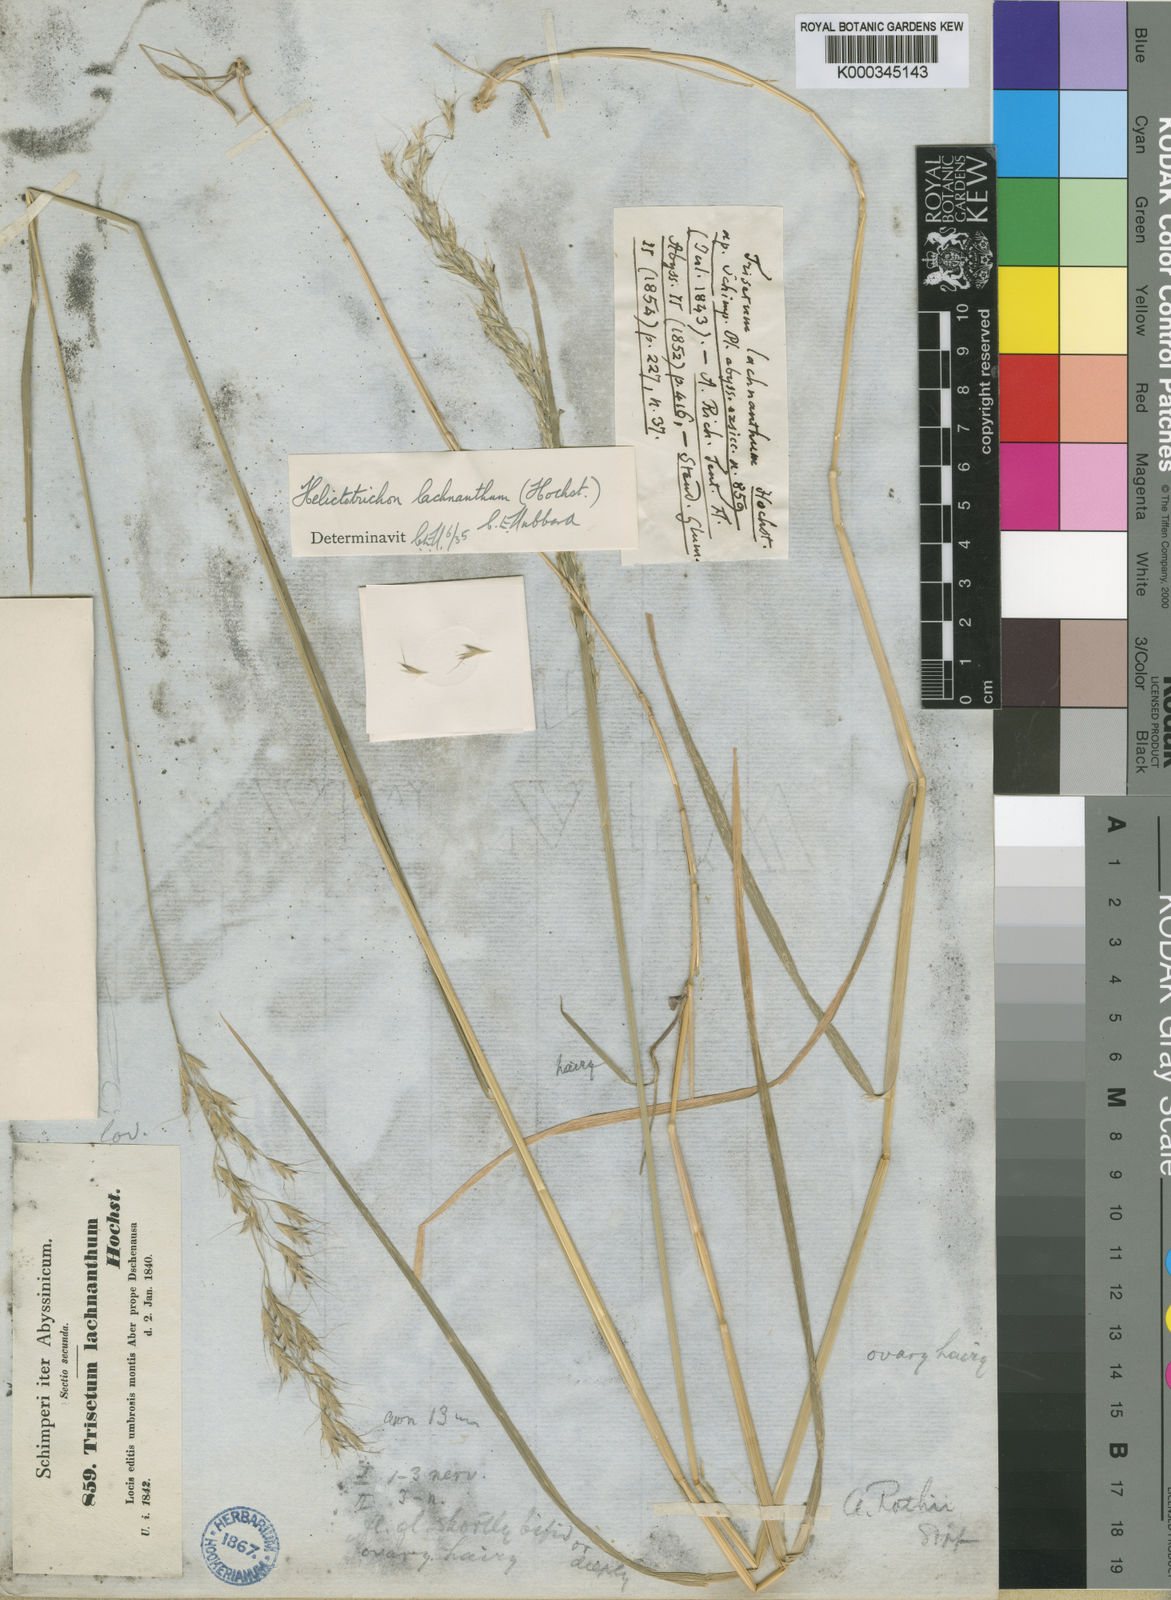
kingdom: Plantae
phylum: Tracheophyta
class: Liliopsida
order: Poales
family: Poaceae
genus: Trisetopsis
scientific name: Trisetopsis lachnantha
